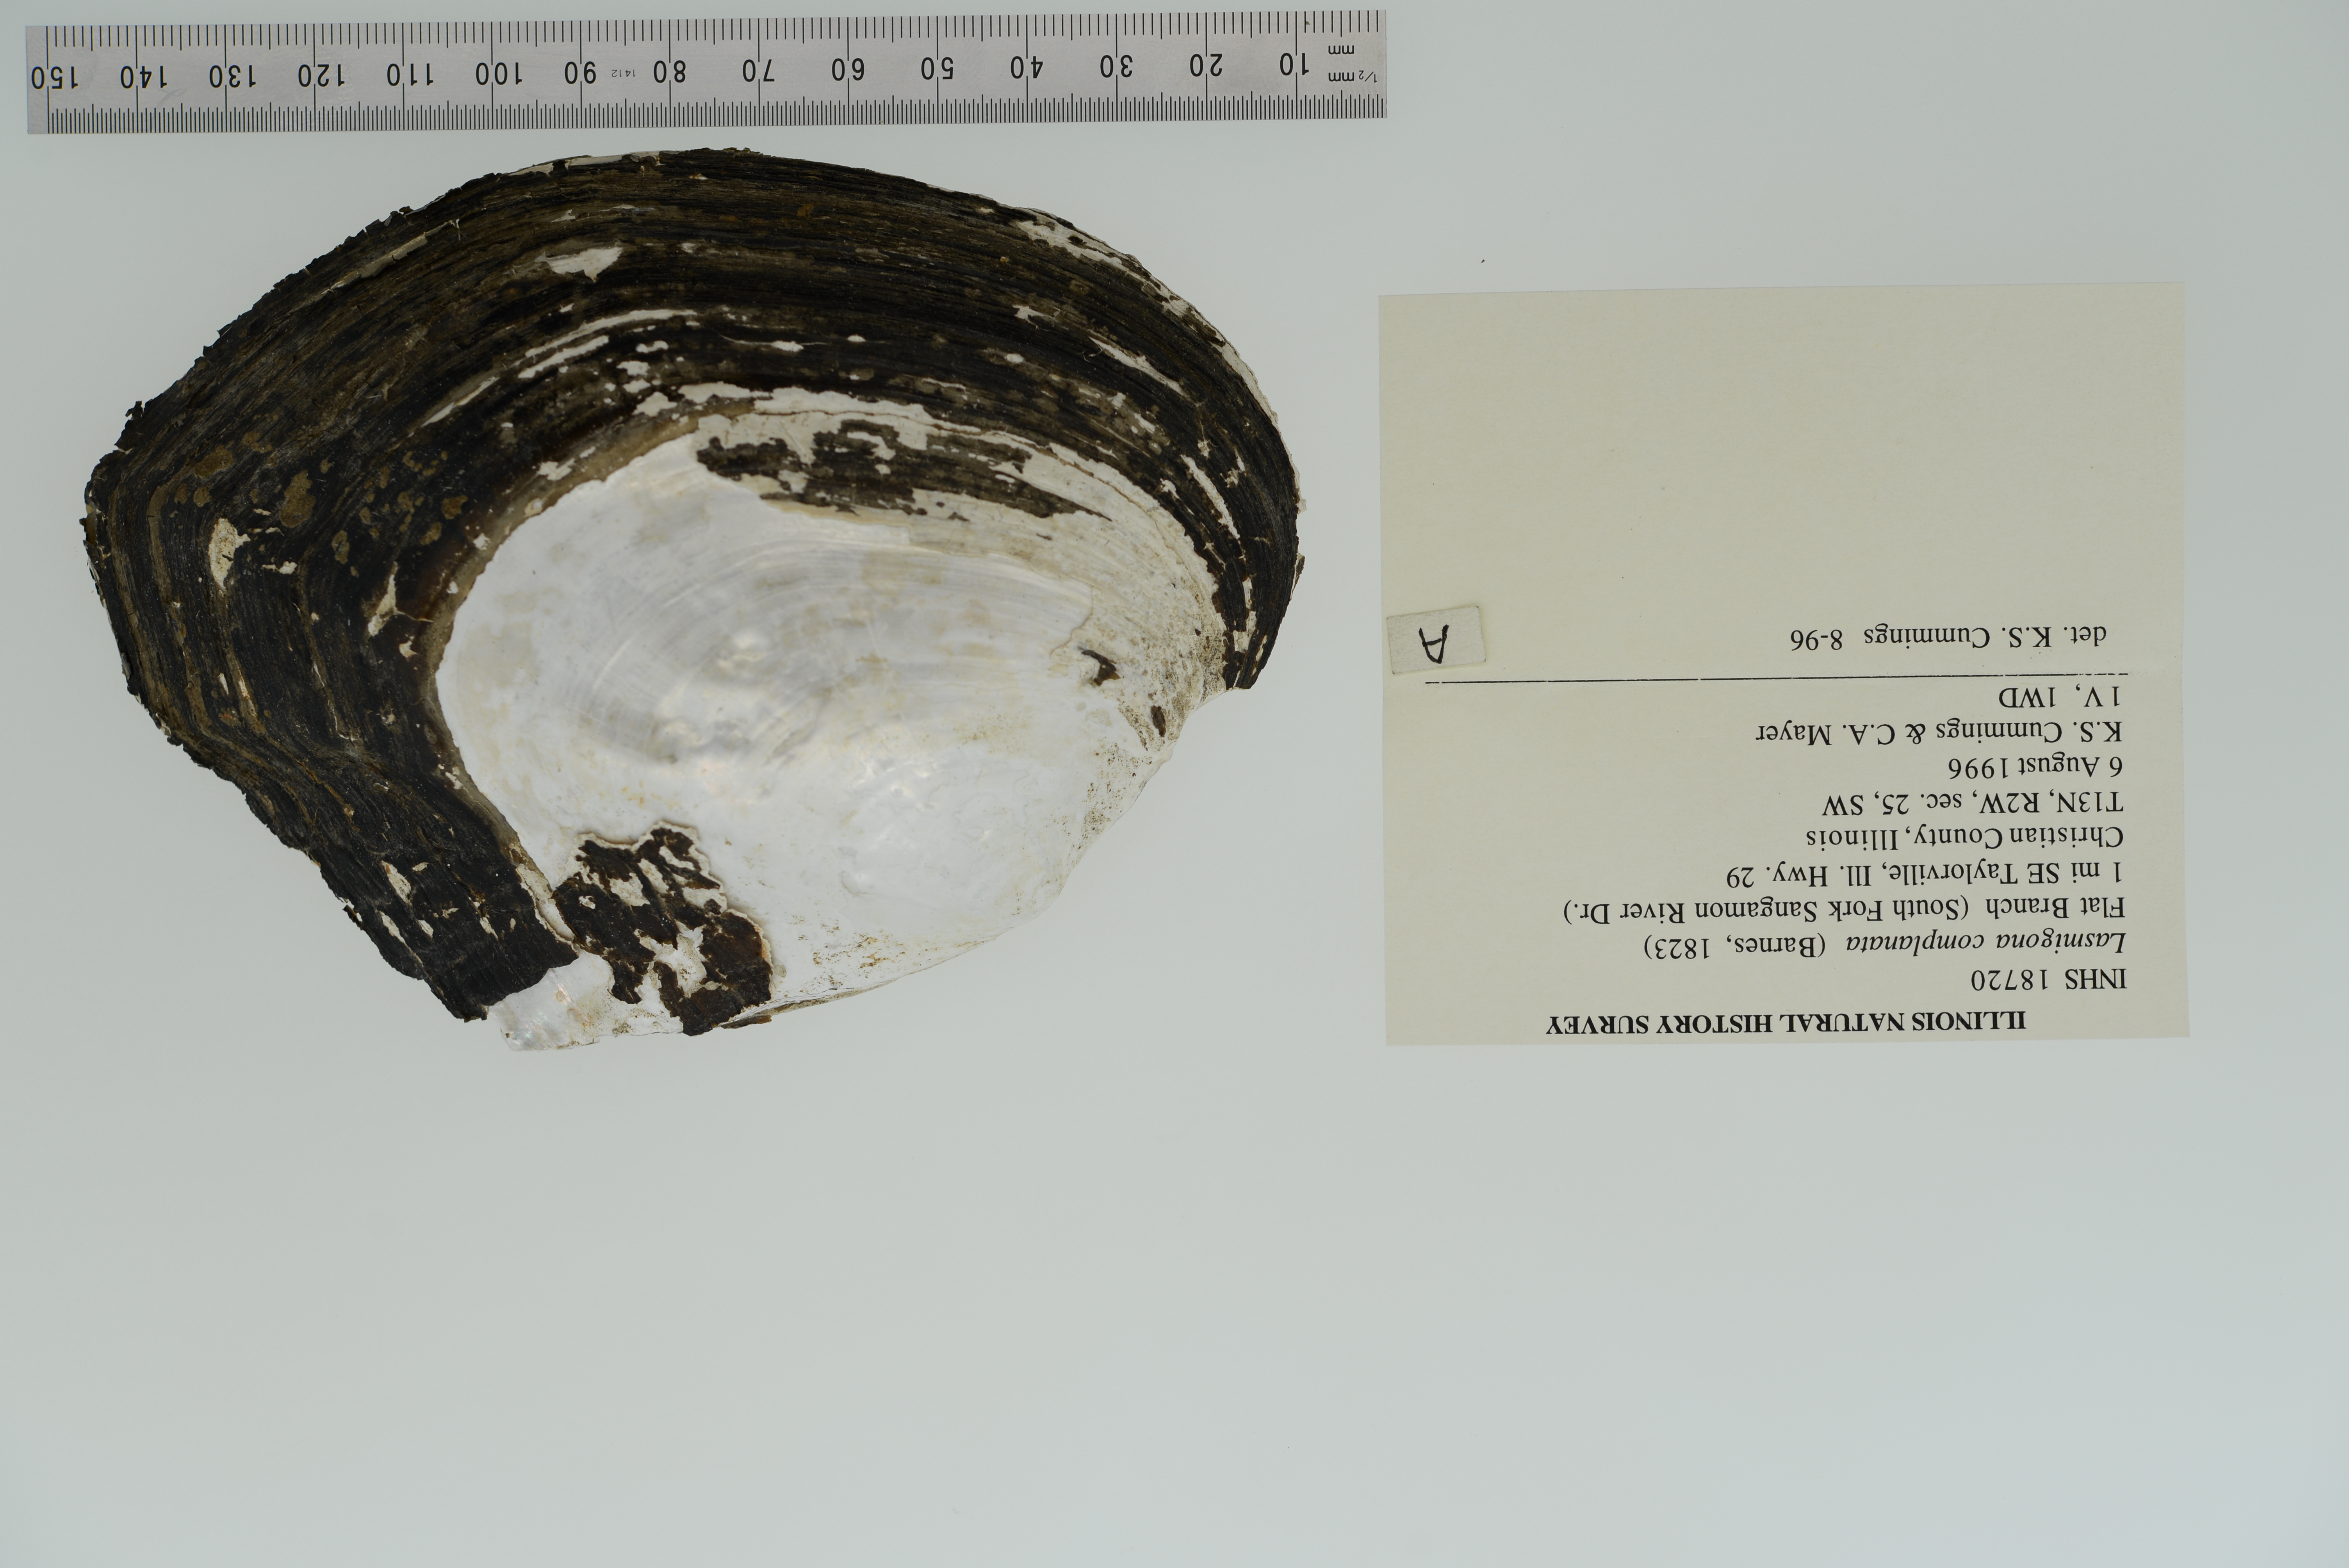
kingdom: Animalia
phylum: Mollusca
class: Bivalvia
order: Unionida
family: Unionidae
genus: Lasmigona
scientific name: Lasmigona complanata
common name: White heelsplitter
